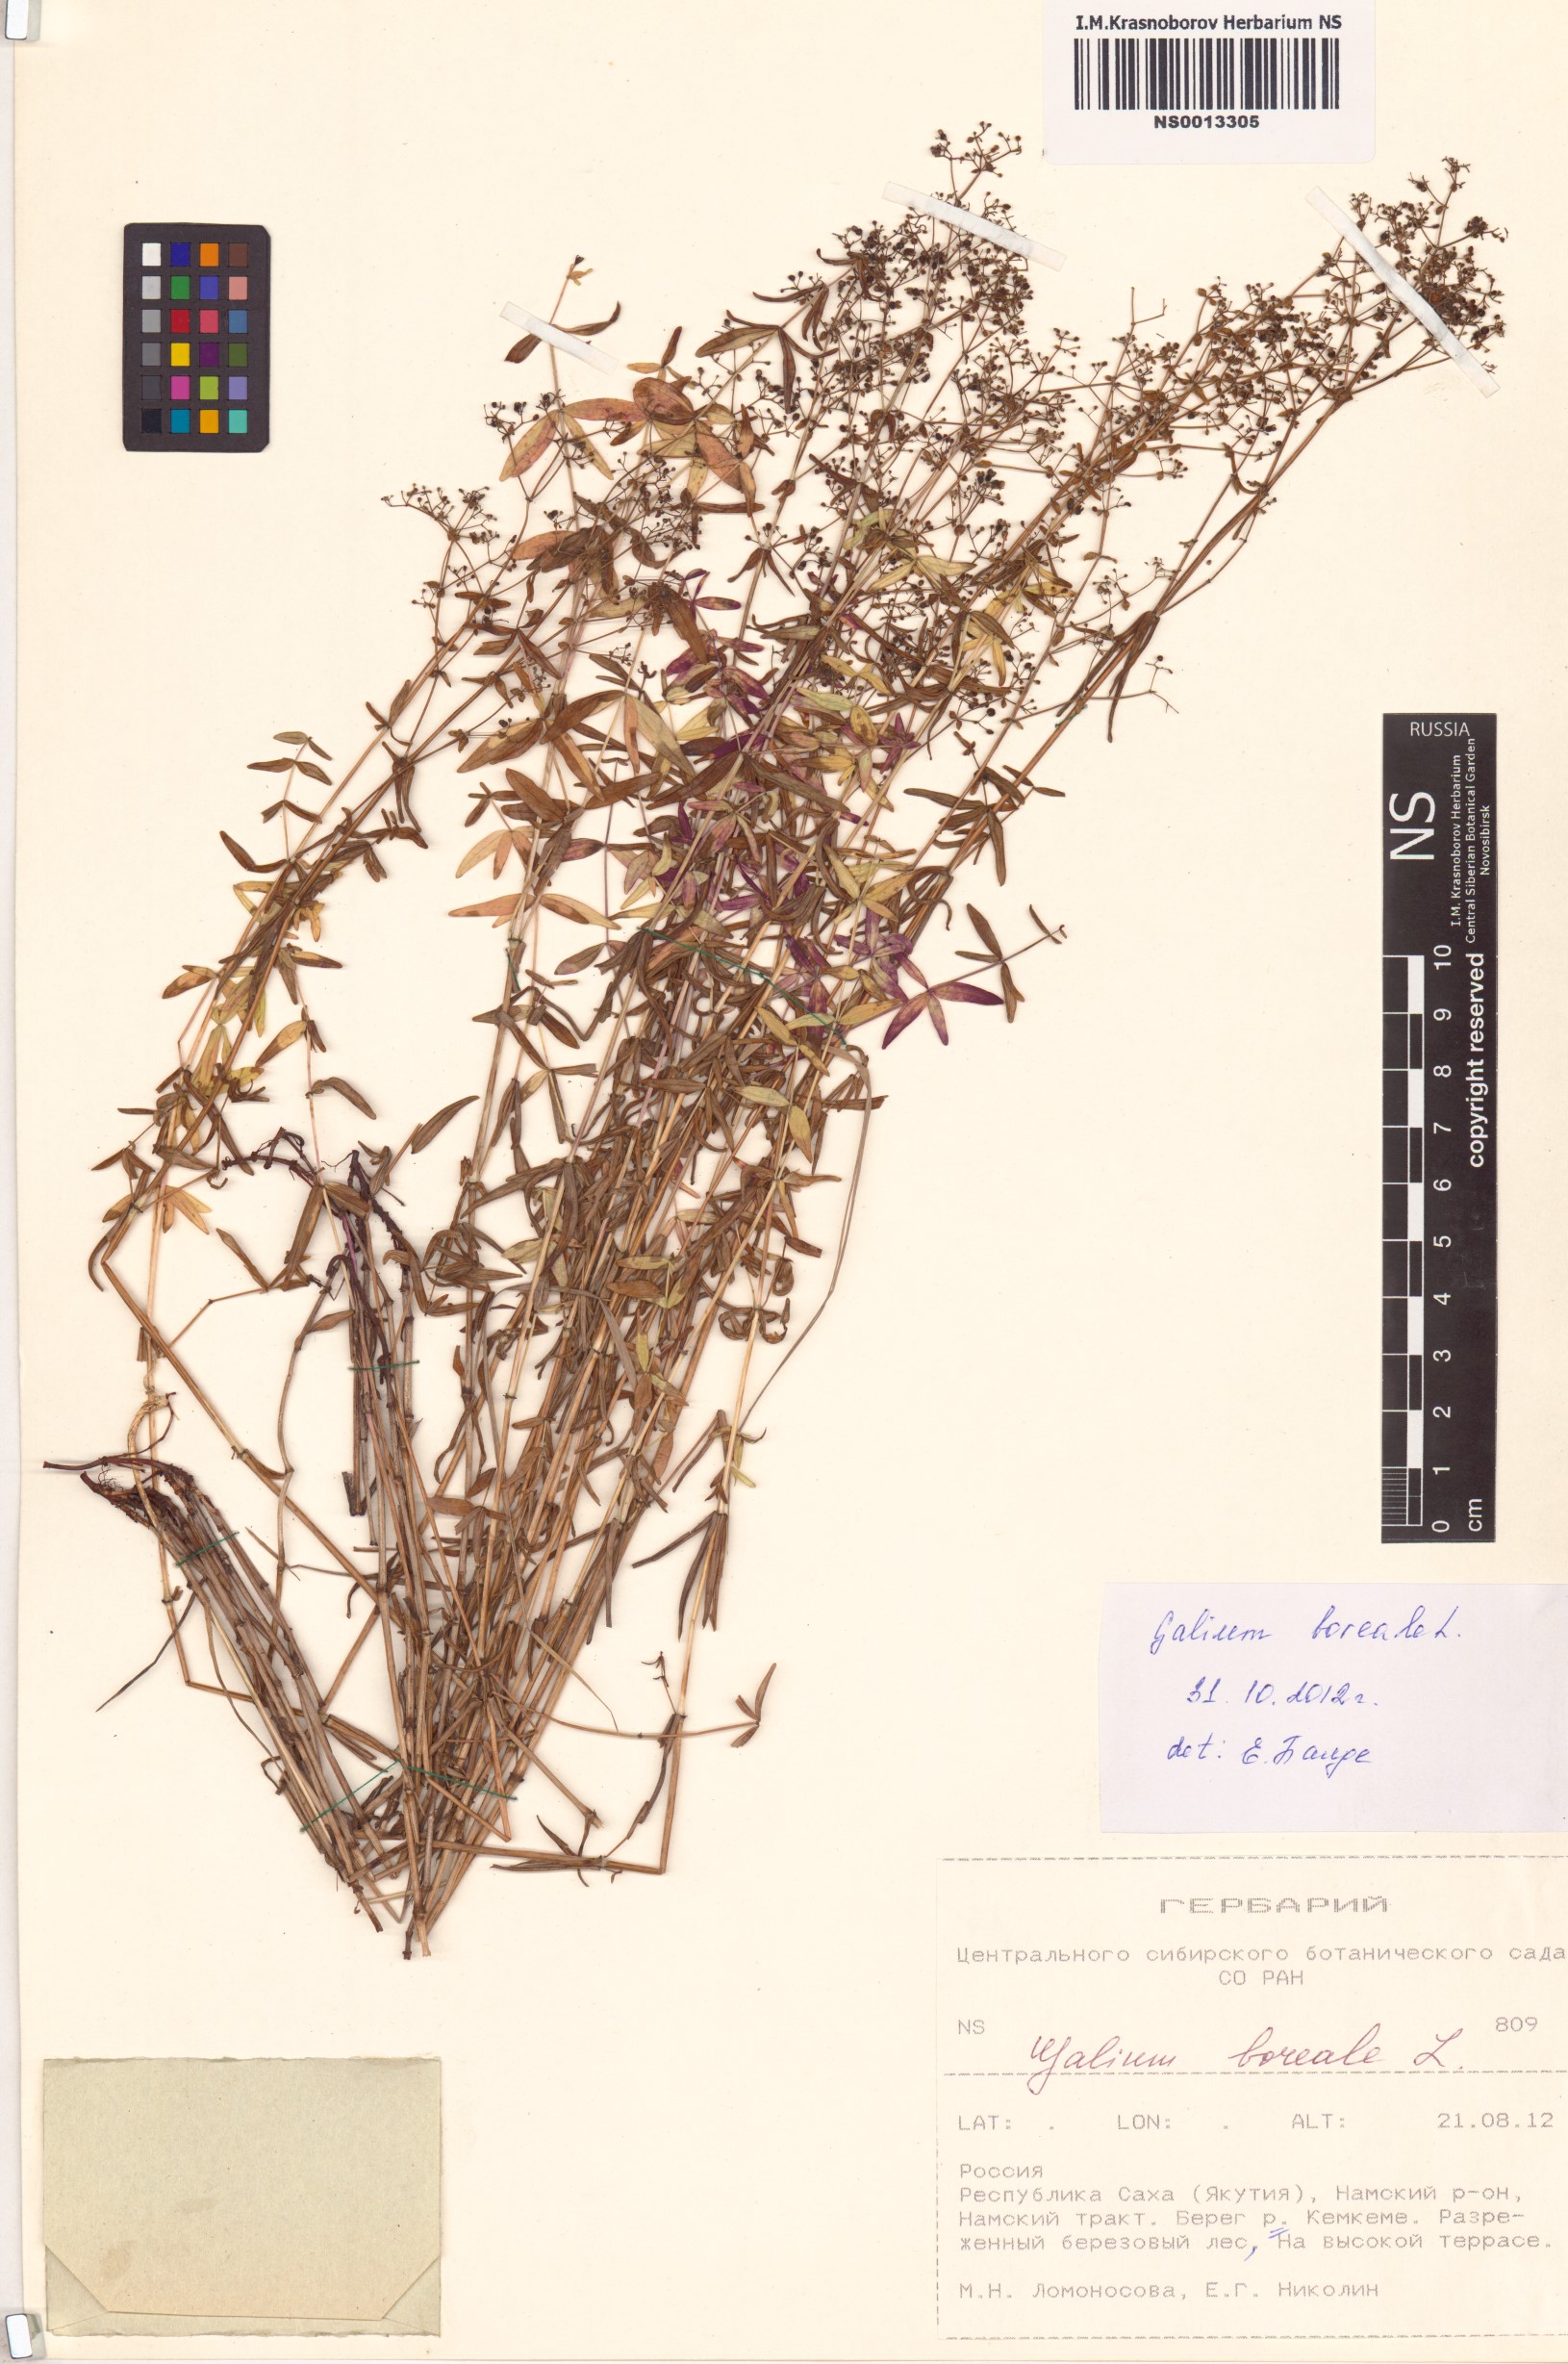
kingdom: Plantae
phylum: Tracheophyta
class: Magnoliopsida
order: Gentianales
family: Rubiaceae
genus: Galium
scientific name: Galium boreale
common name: Northern bedstraw
